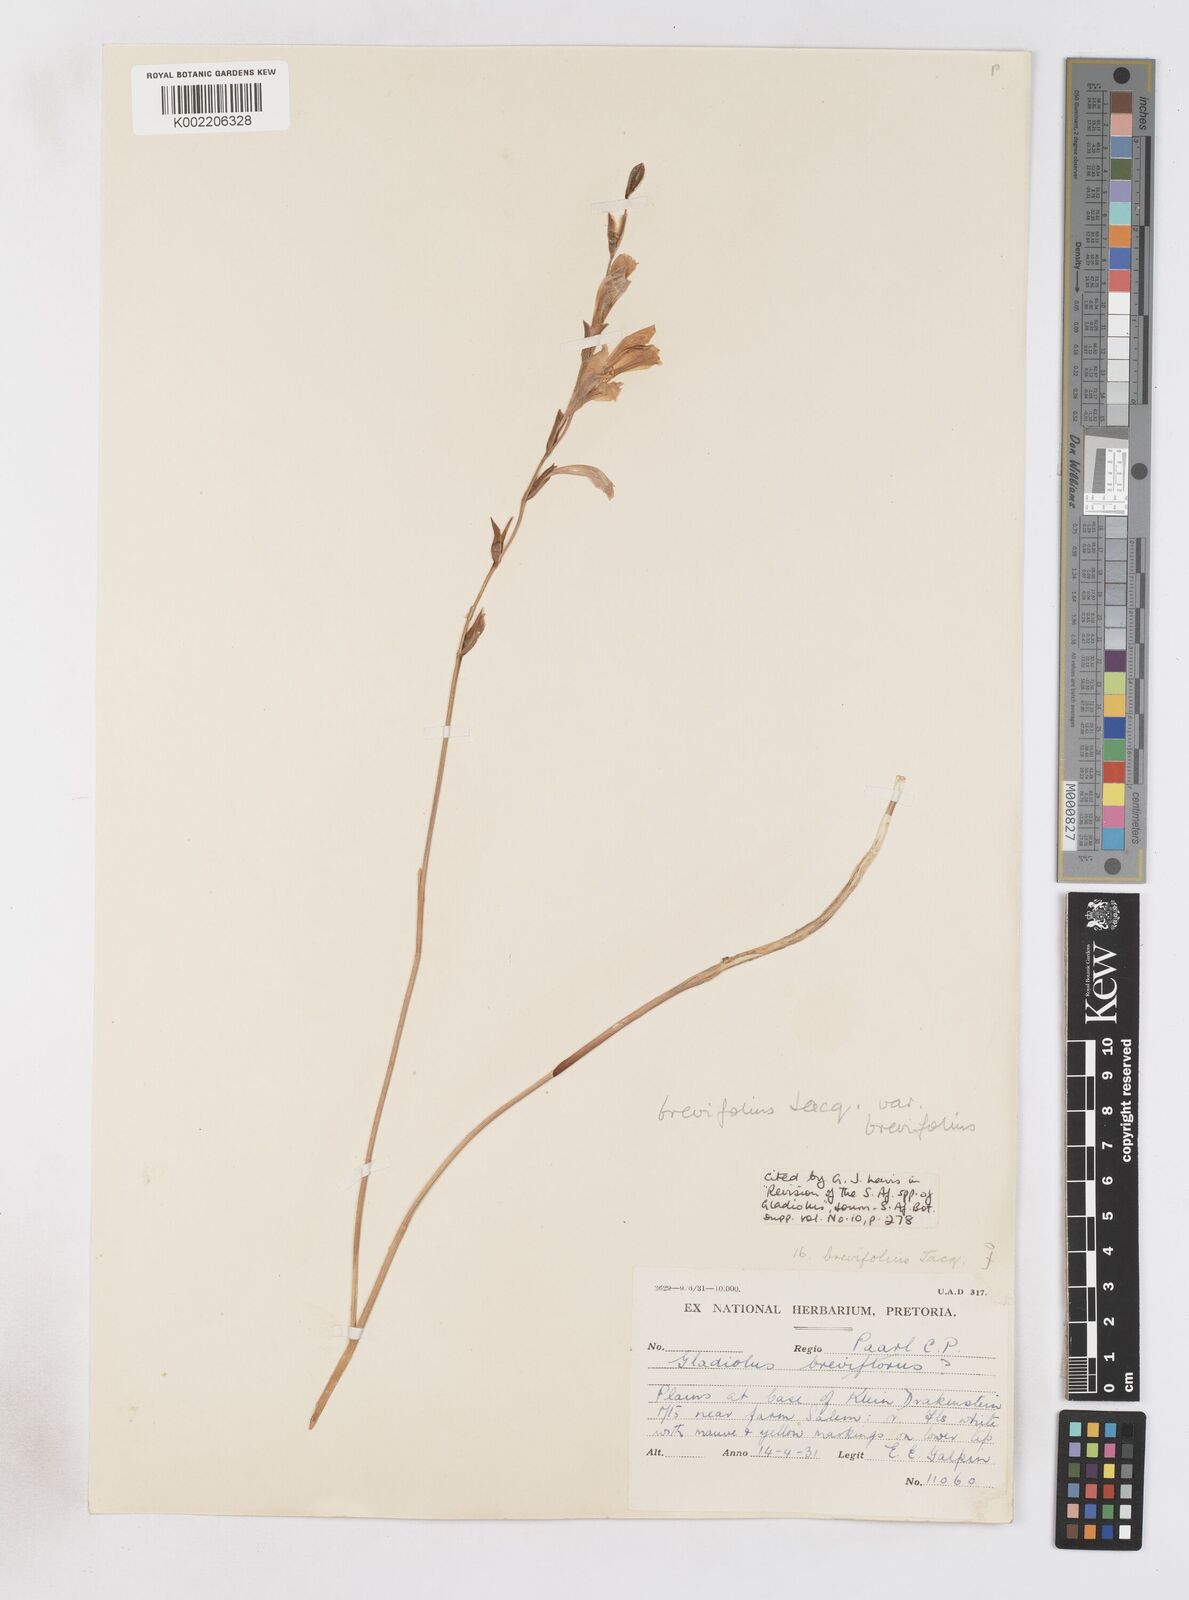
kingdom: Plantae
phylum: Tracheophyta
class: Liliopsida
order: Asparagales
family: Iridaceae
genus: Gladiolus
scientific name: Gladiolus brevifolius
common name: March pypie
